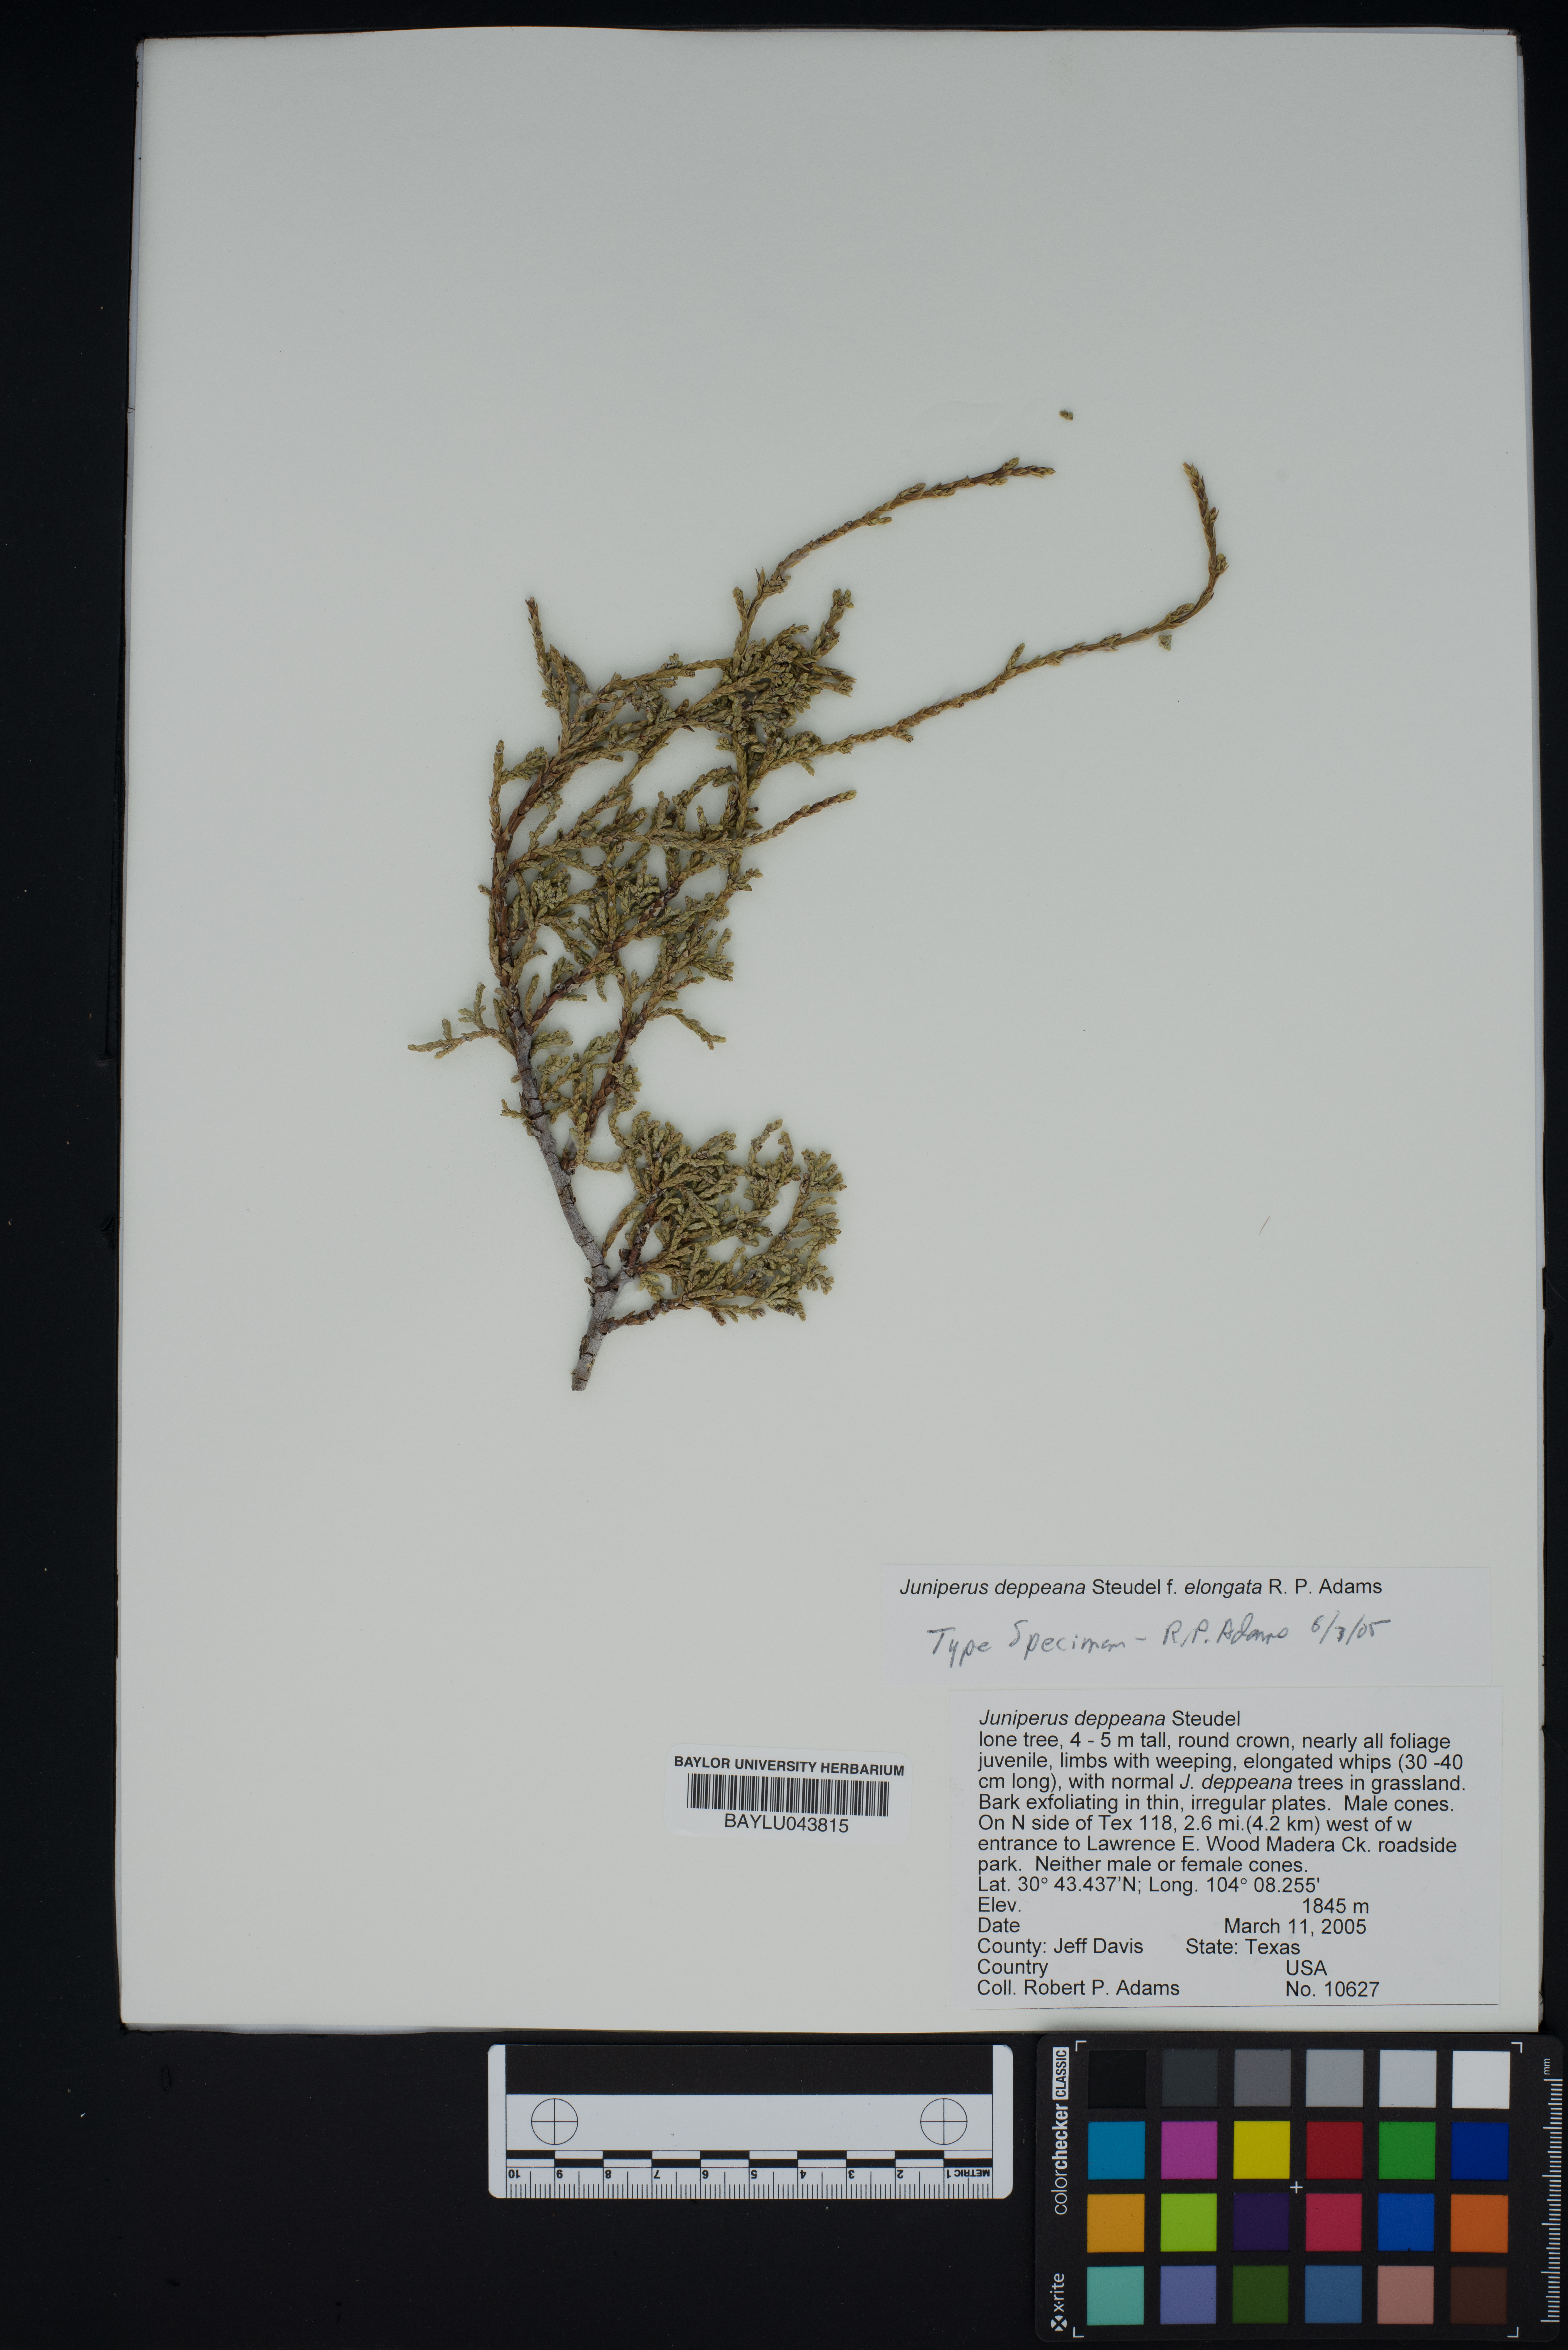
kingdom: Plantae
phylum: Tracheophyta
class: Pinopsida
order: Pinales
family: Cupressaceae
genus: Juniperus
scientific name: Juniperus deppeana
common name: Alligator juniper
